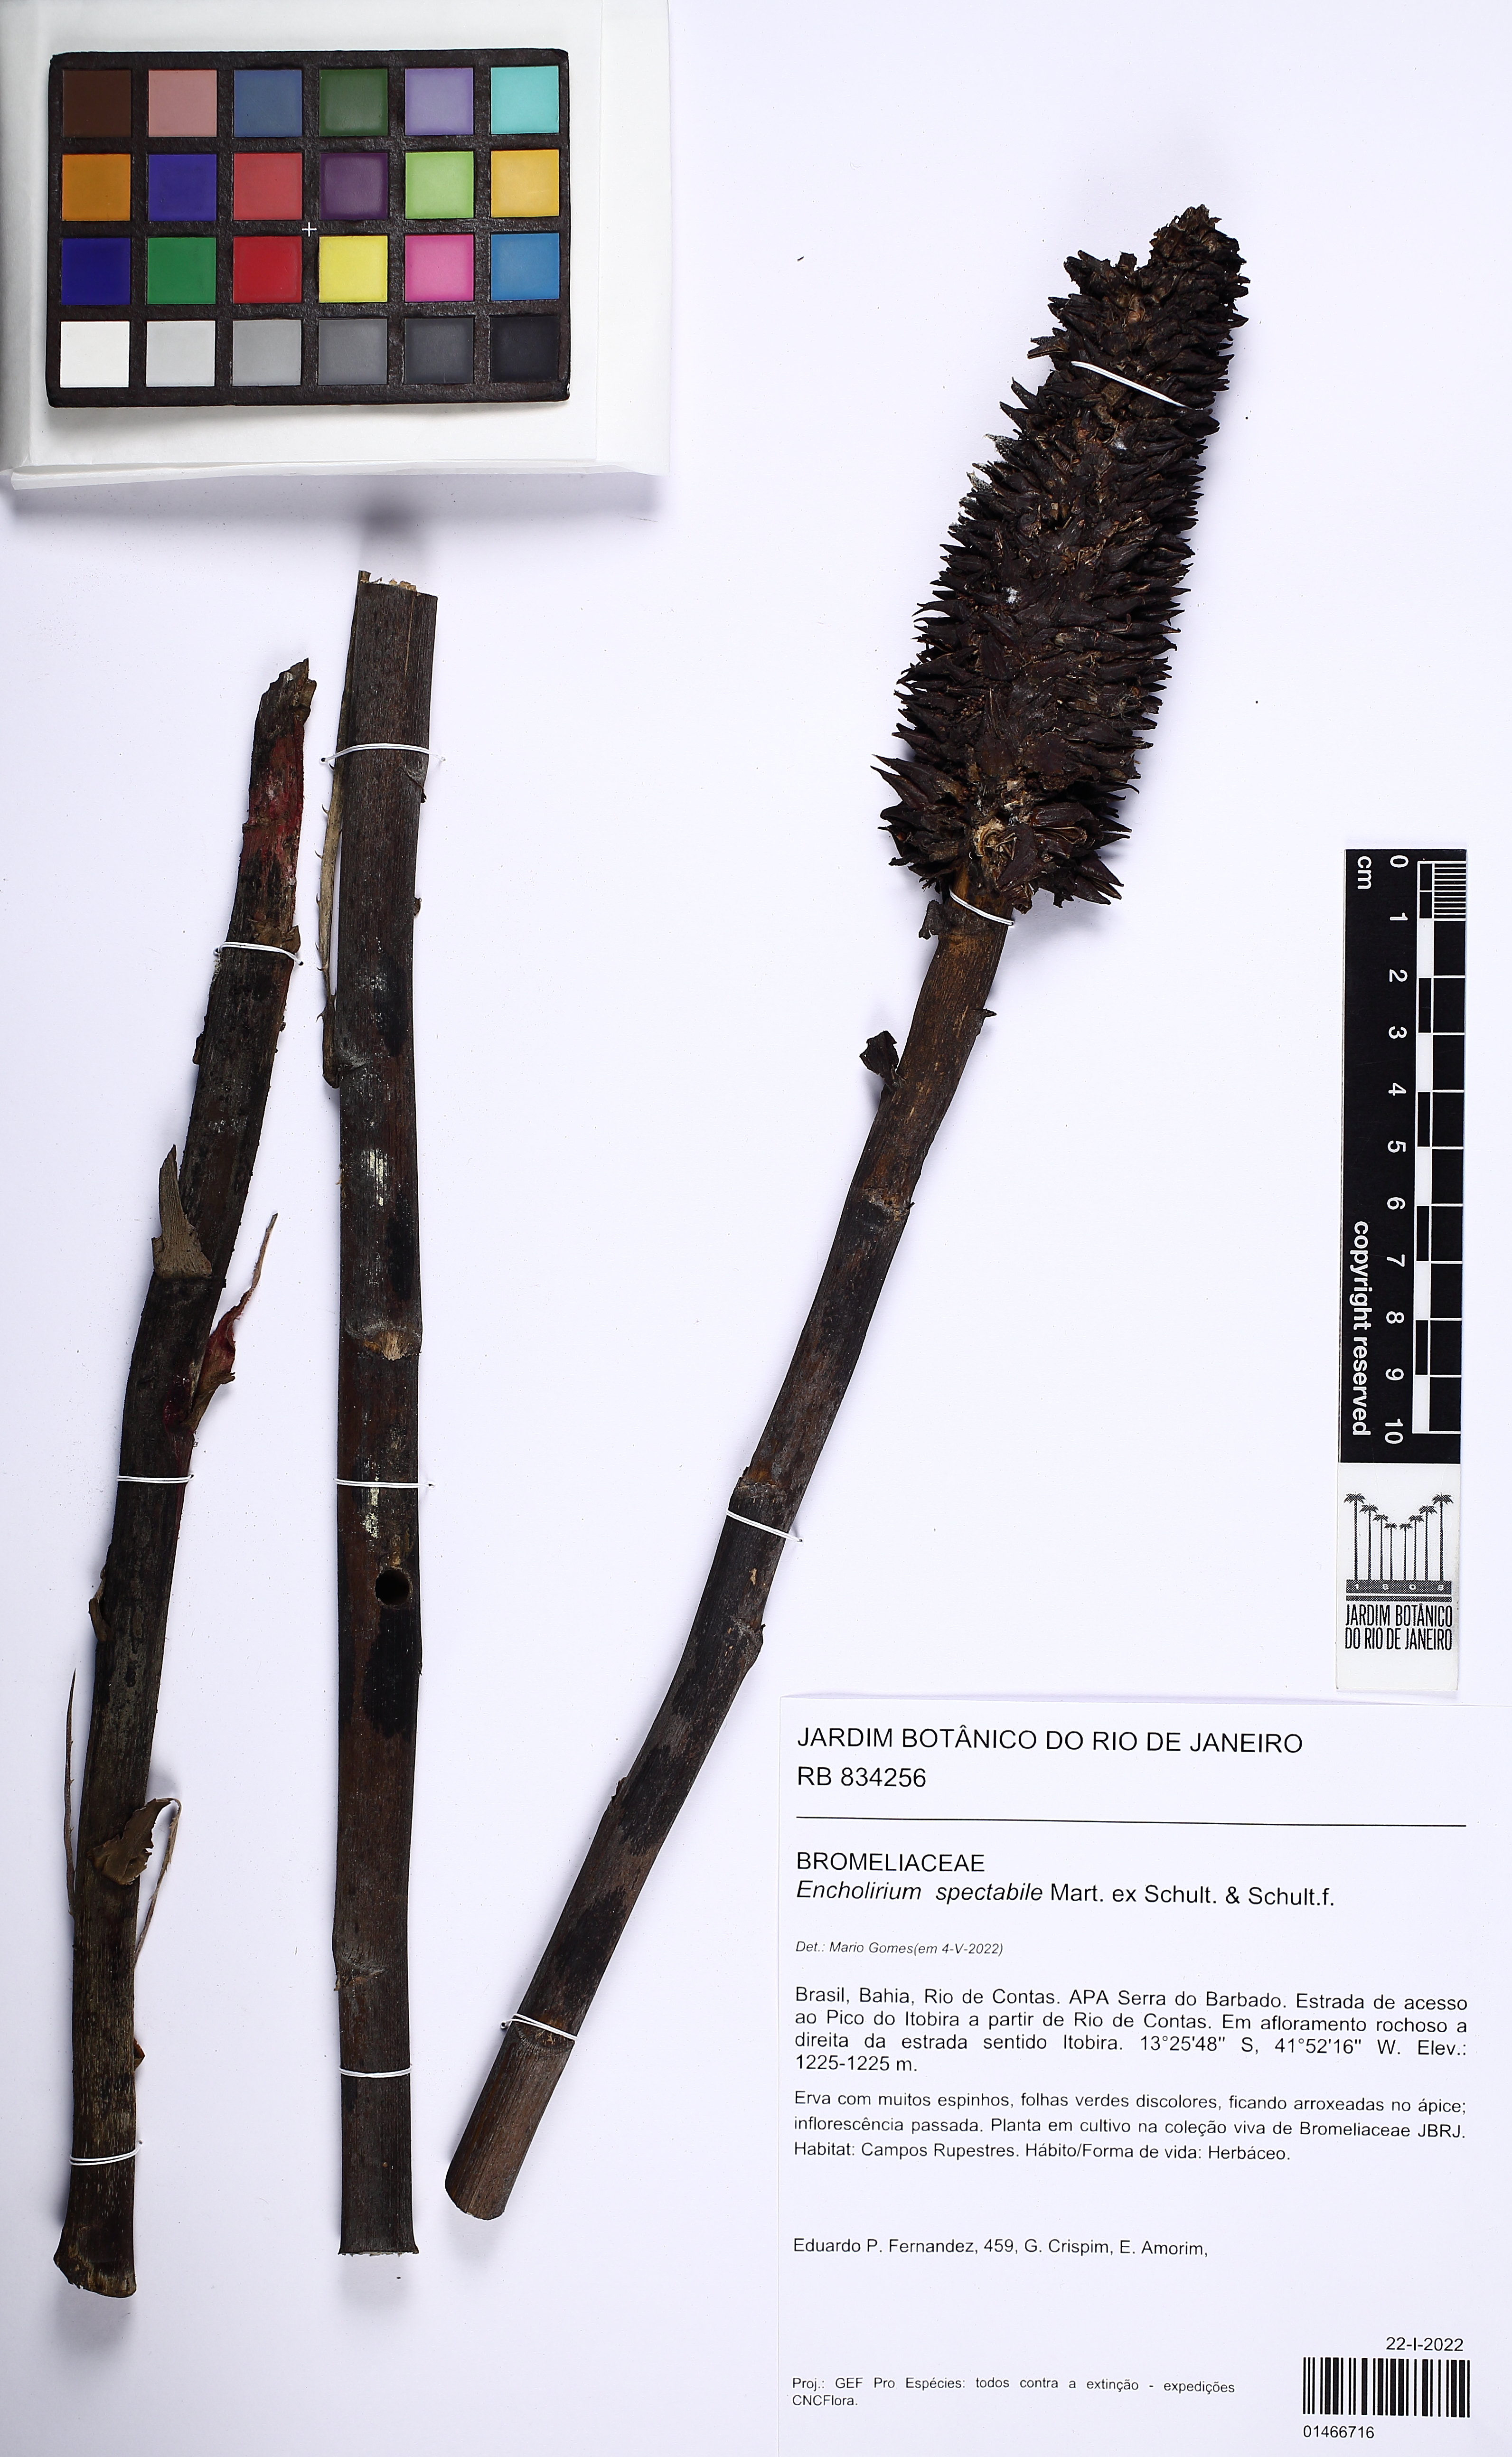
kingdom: Plantae
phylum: Tracheophyta
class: Liliopsida
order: Poales
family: Bromeliaceae
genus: Encholirium
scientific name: Encholirium spectabile
